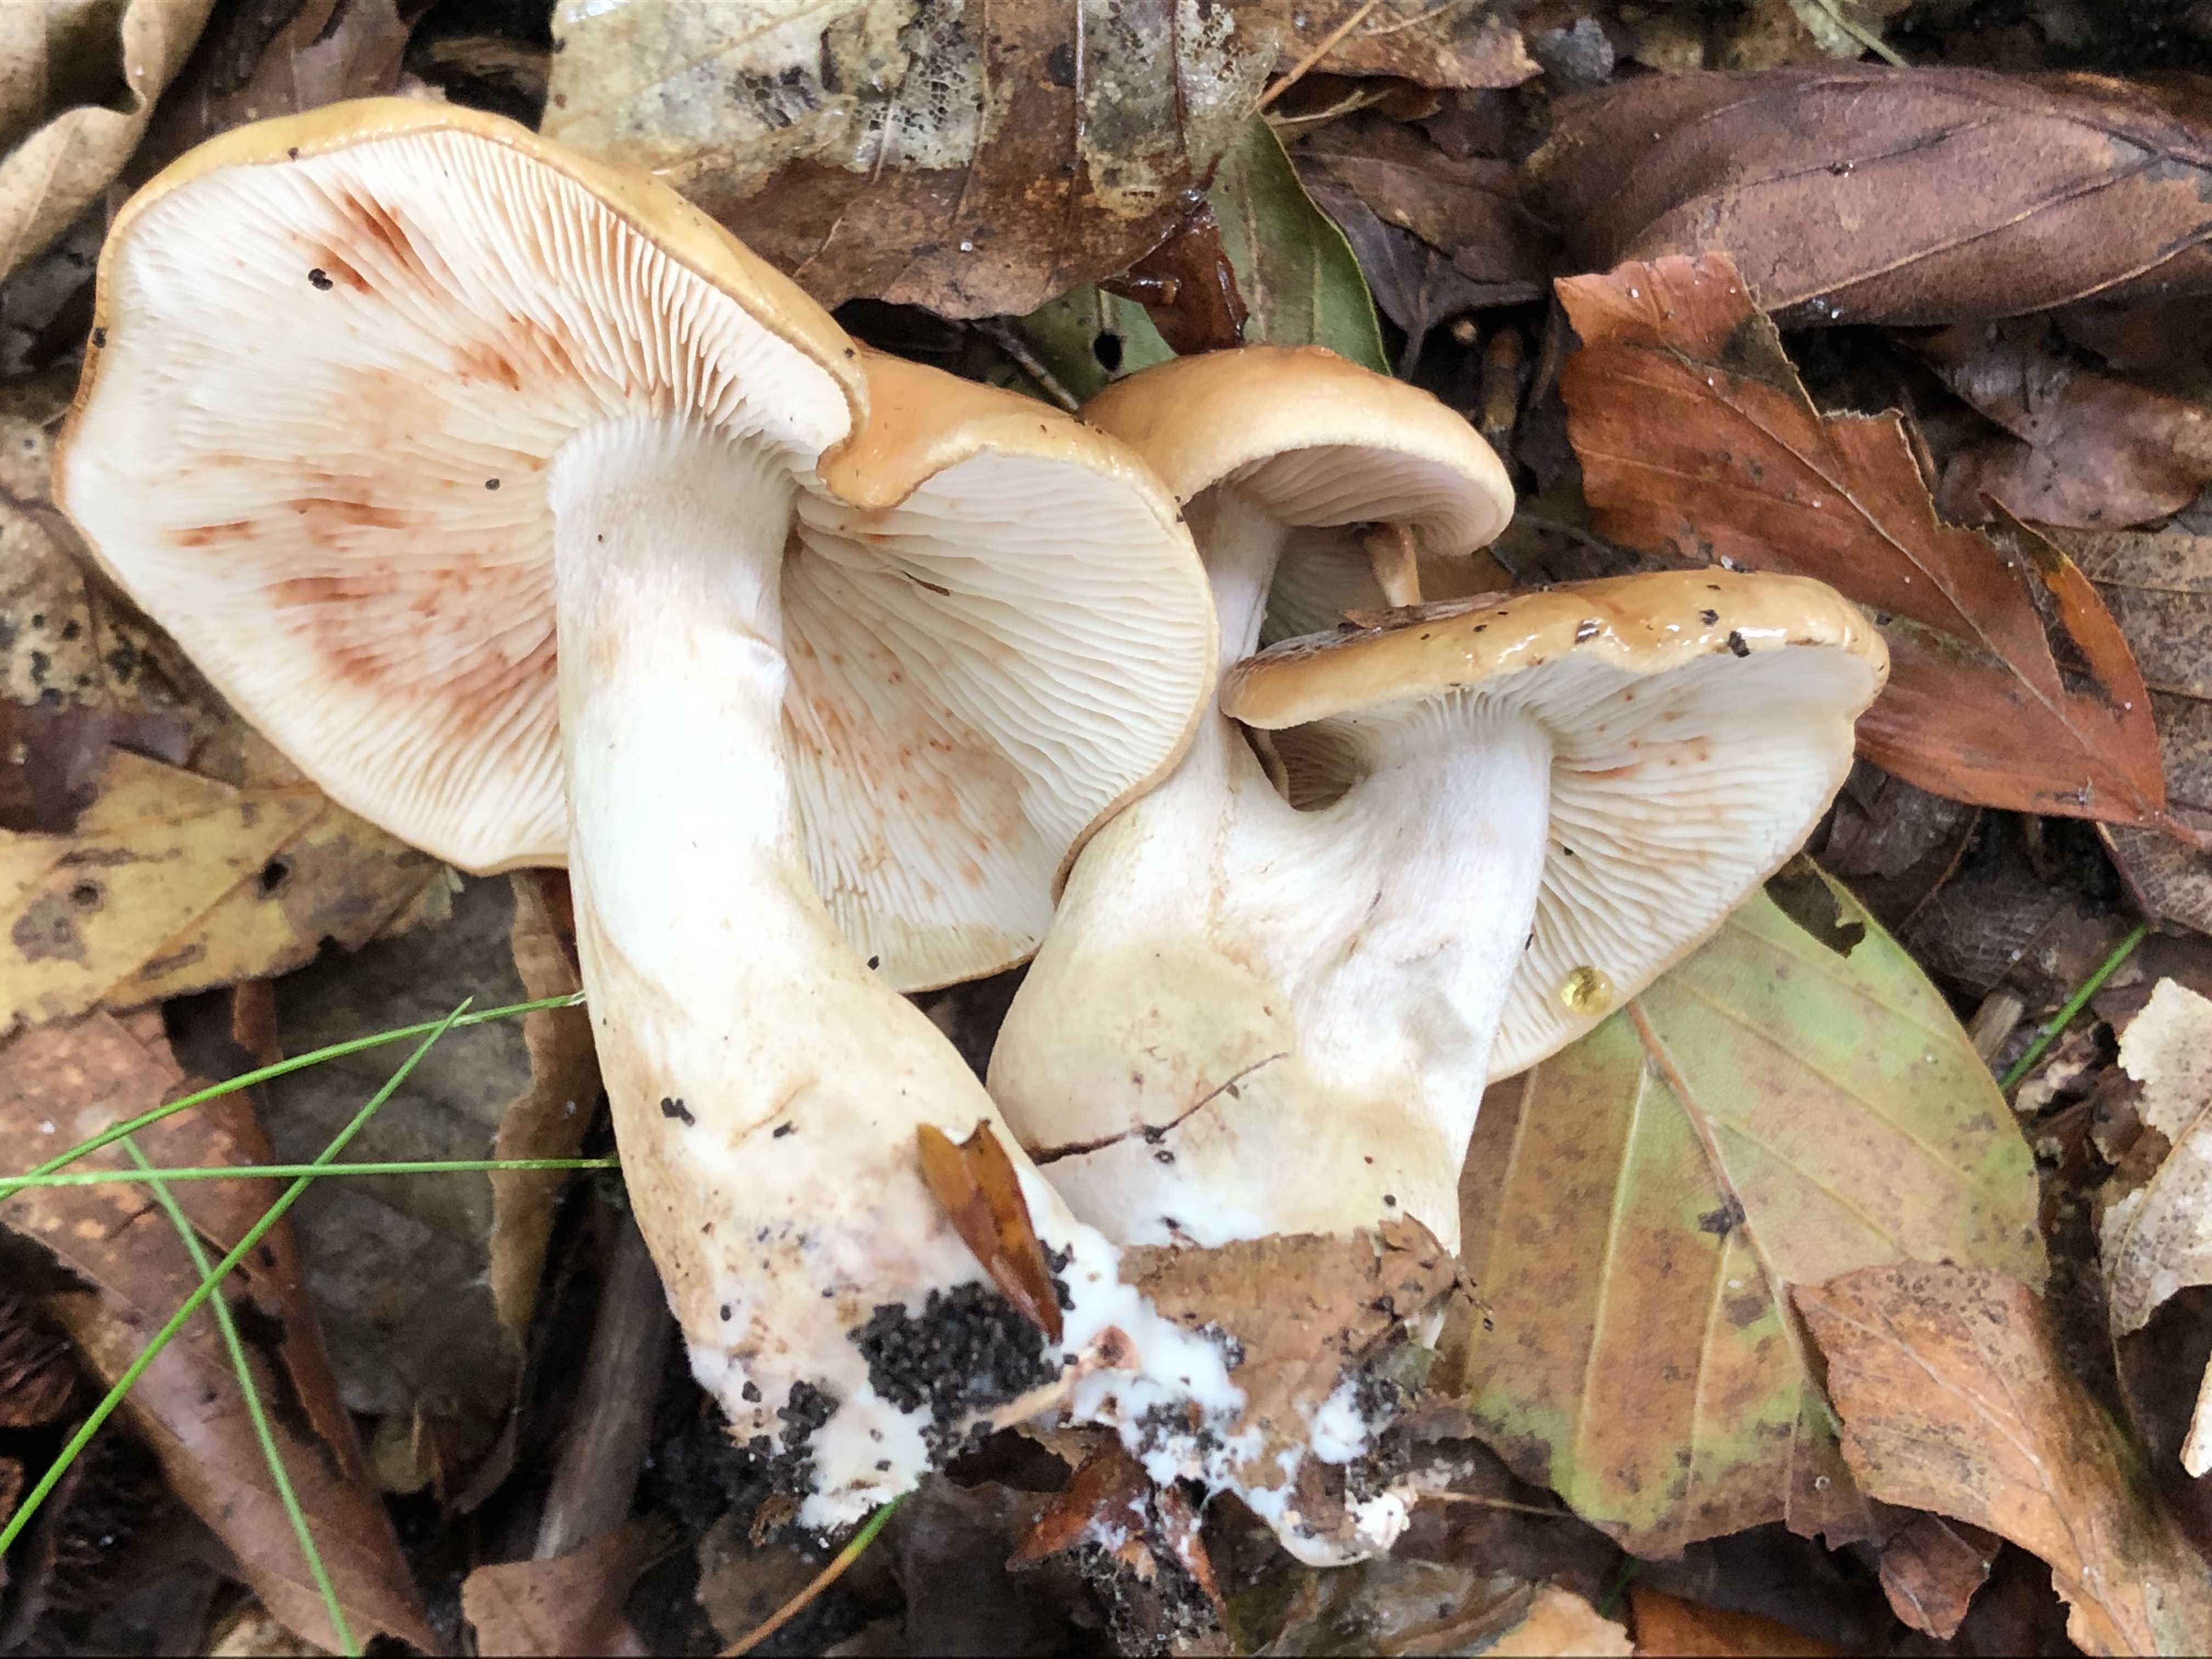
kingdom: Fungi
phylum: Basidiomycota
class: Agaricomycetes
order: Agaricales
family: Tricholomataceae
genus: Tricholoma
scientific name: Tricholoma ustale
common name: sveden ridderhat
